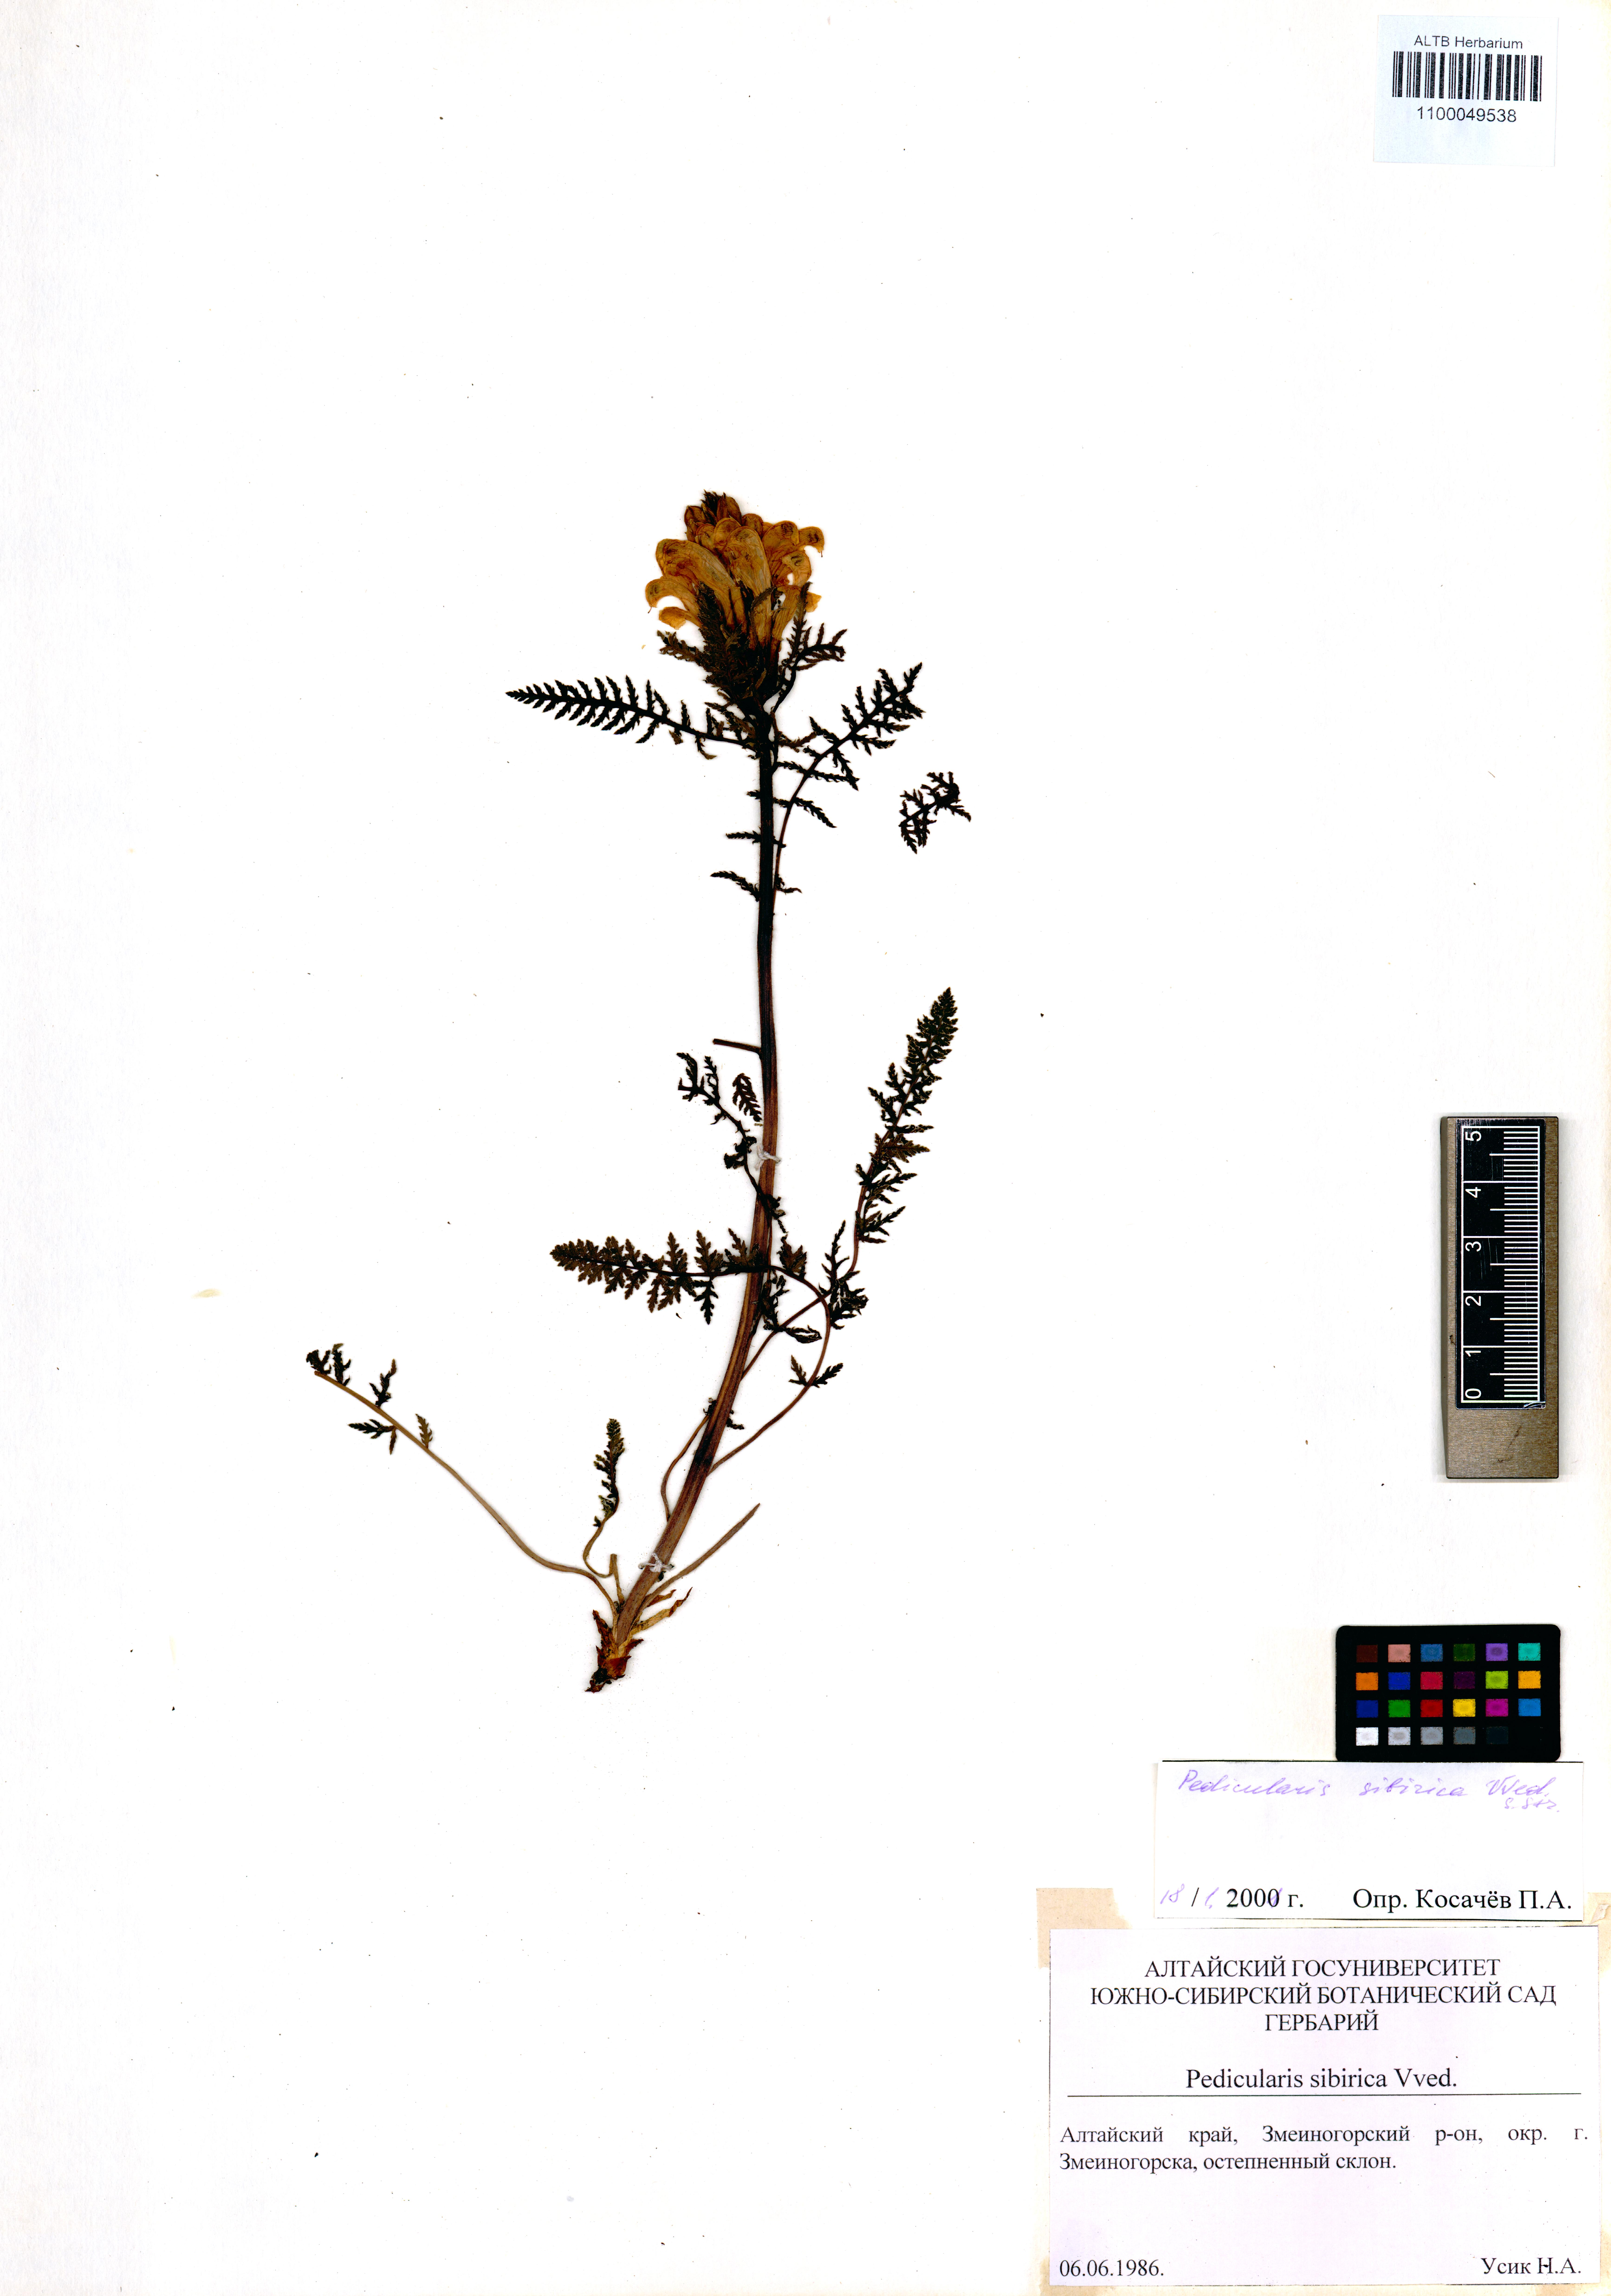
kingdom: Plantae
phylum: Tracheophyta
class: Magnoliopsida
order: Lamiales
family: Orobanchaceae
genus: Pedicularis
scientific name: Pedicularis sibirica
